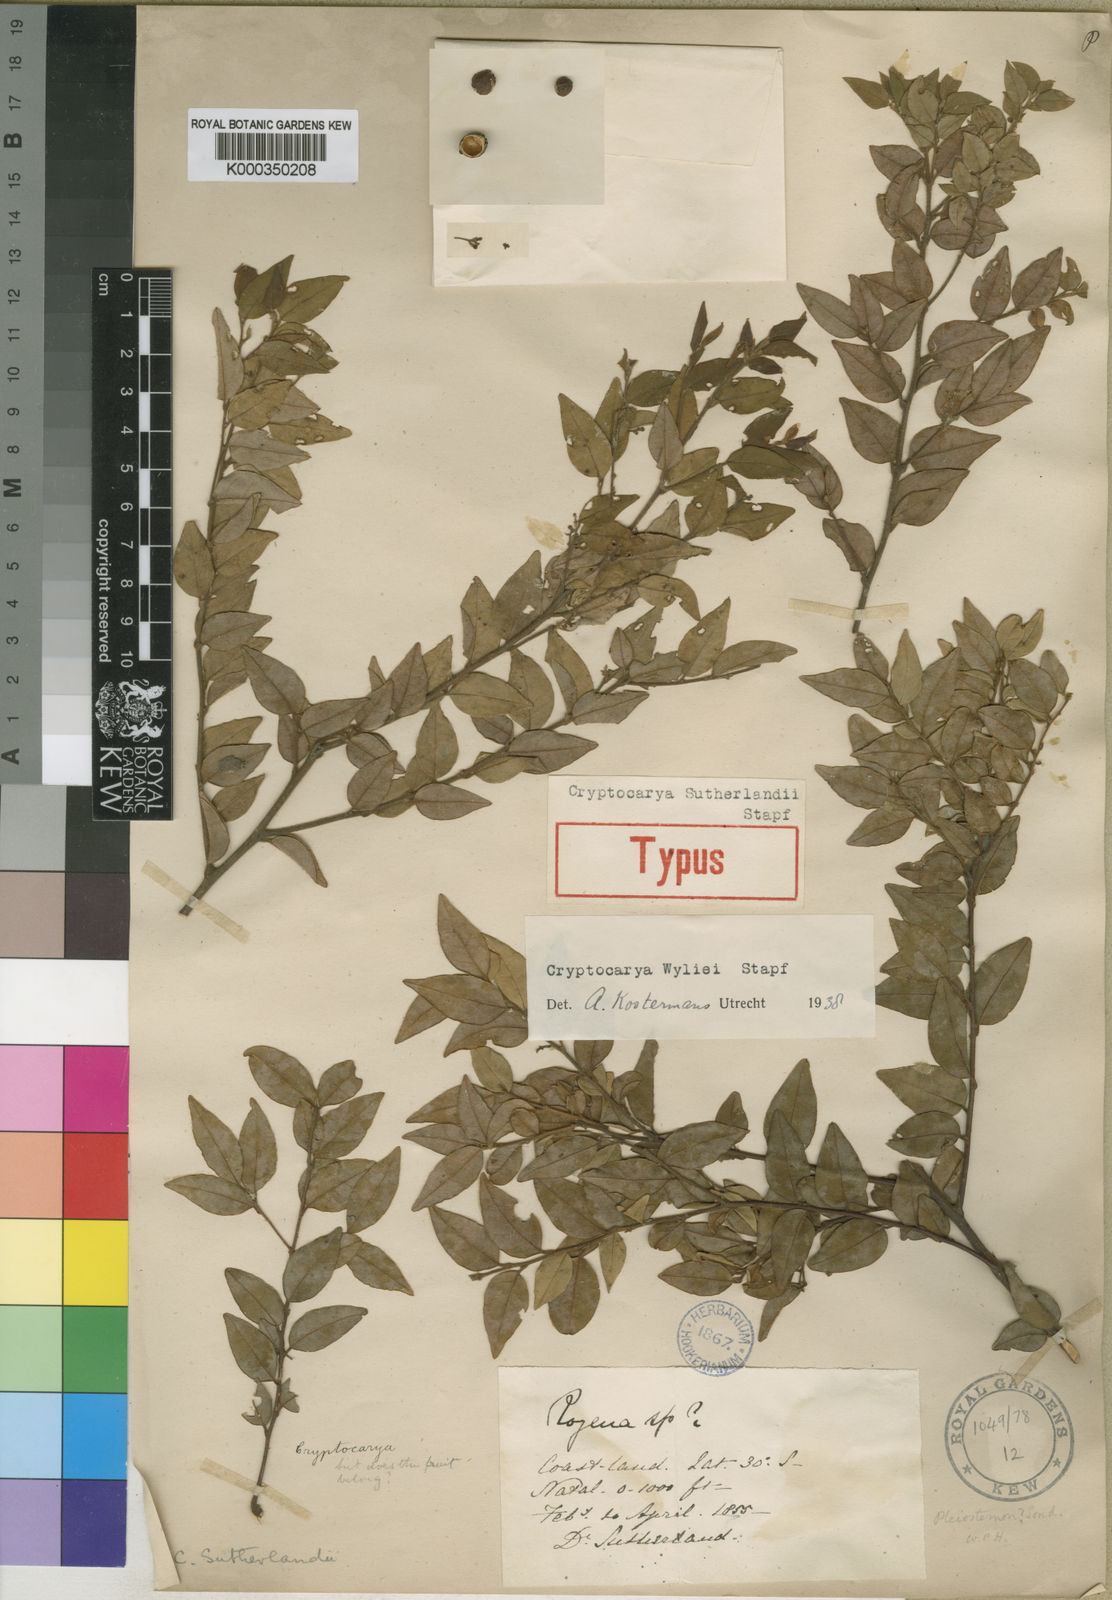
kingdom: Plantae
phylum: Tracheophyta
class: Magnoliopsida
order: Laurales
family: Lauraceae
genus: Cryptocarya
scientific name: Cryptocarya wyliei
